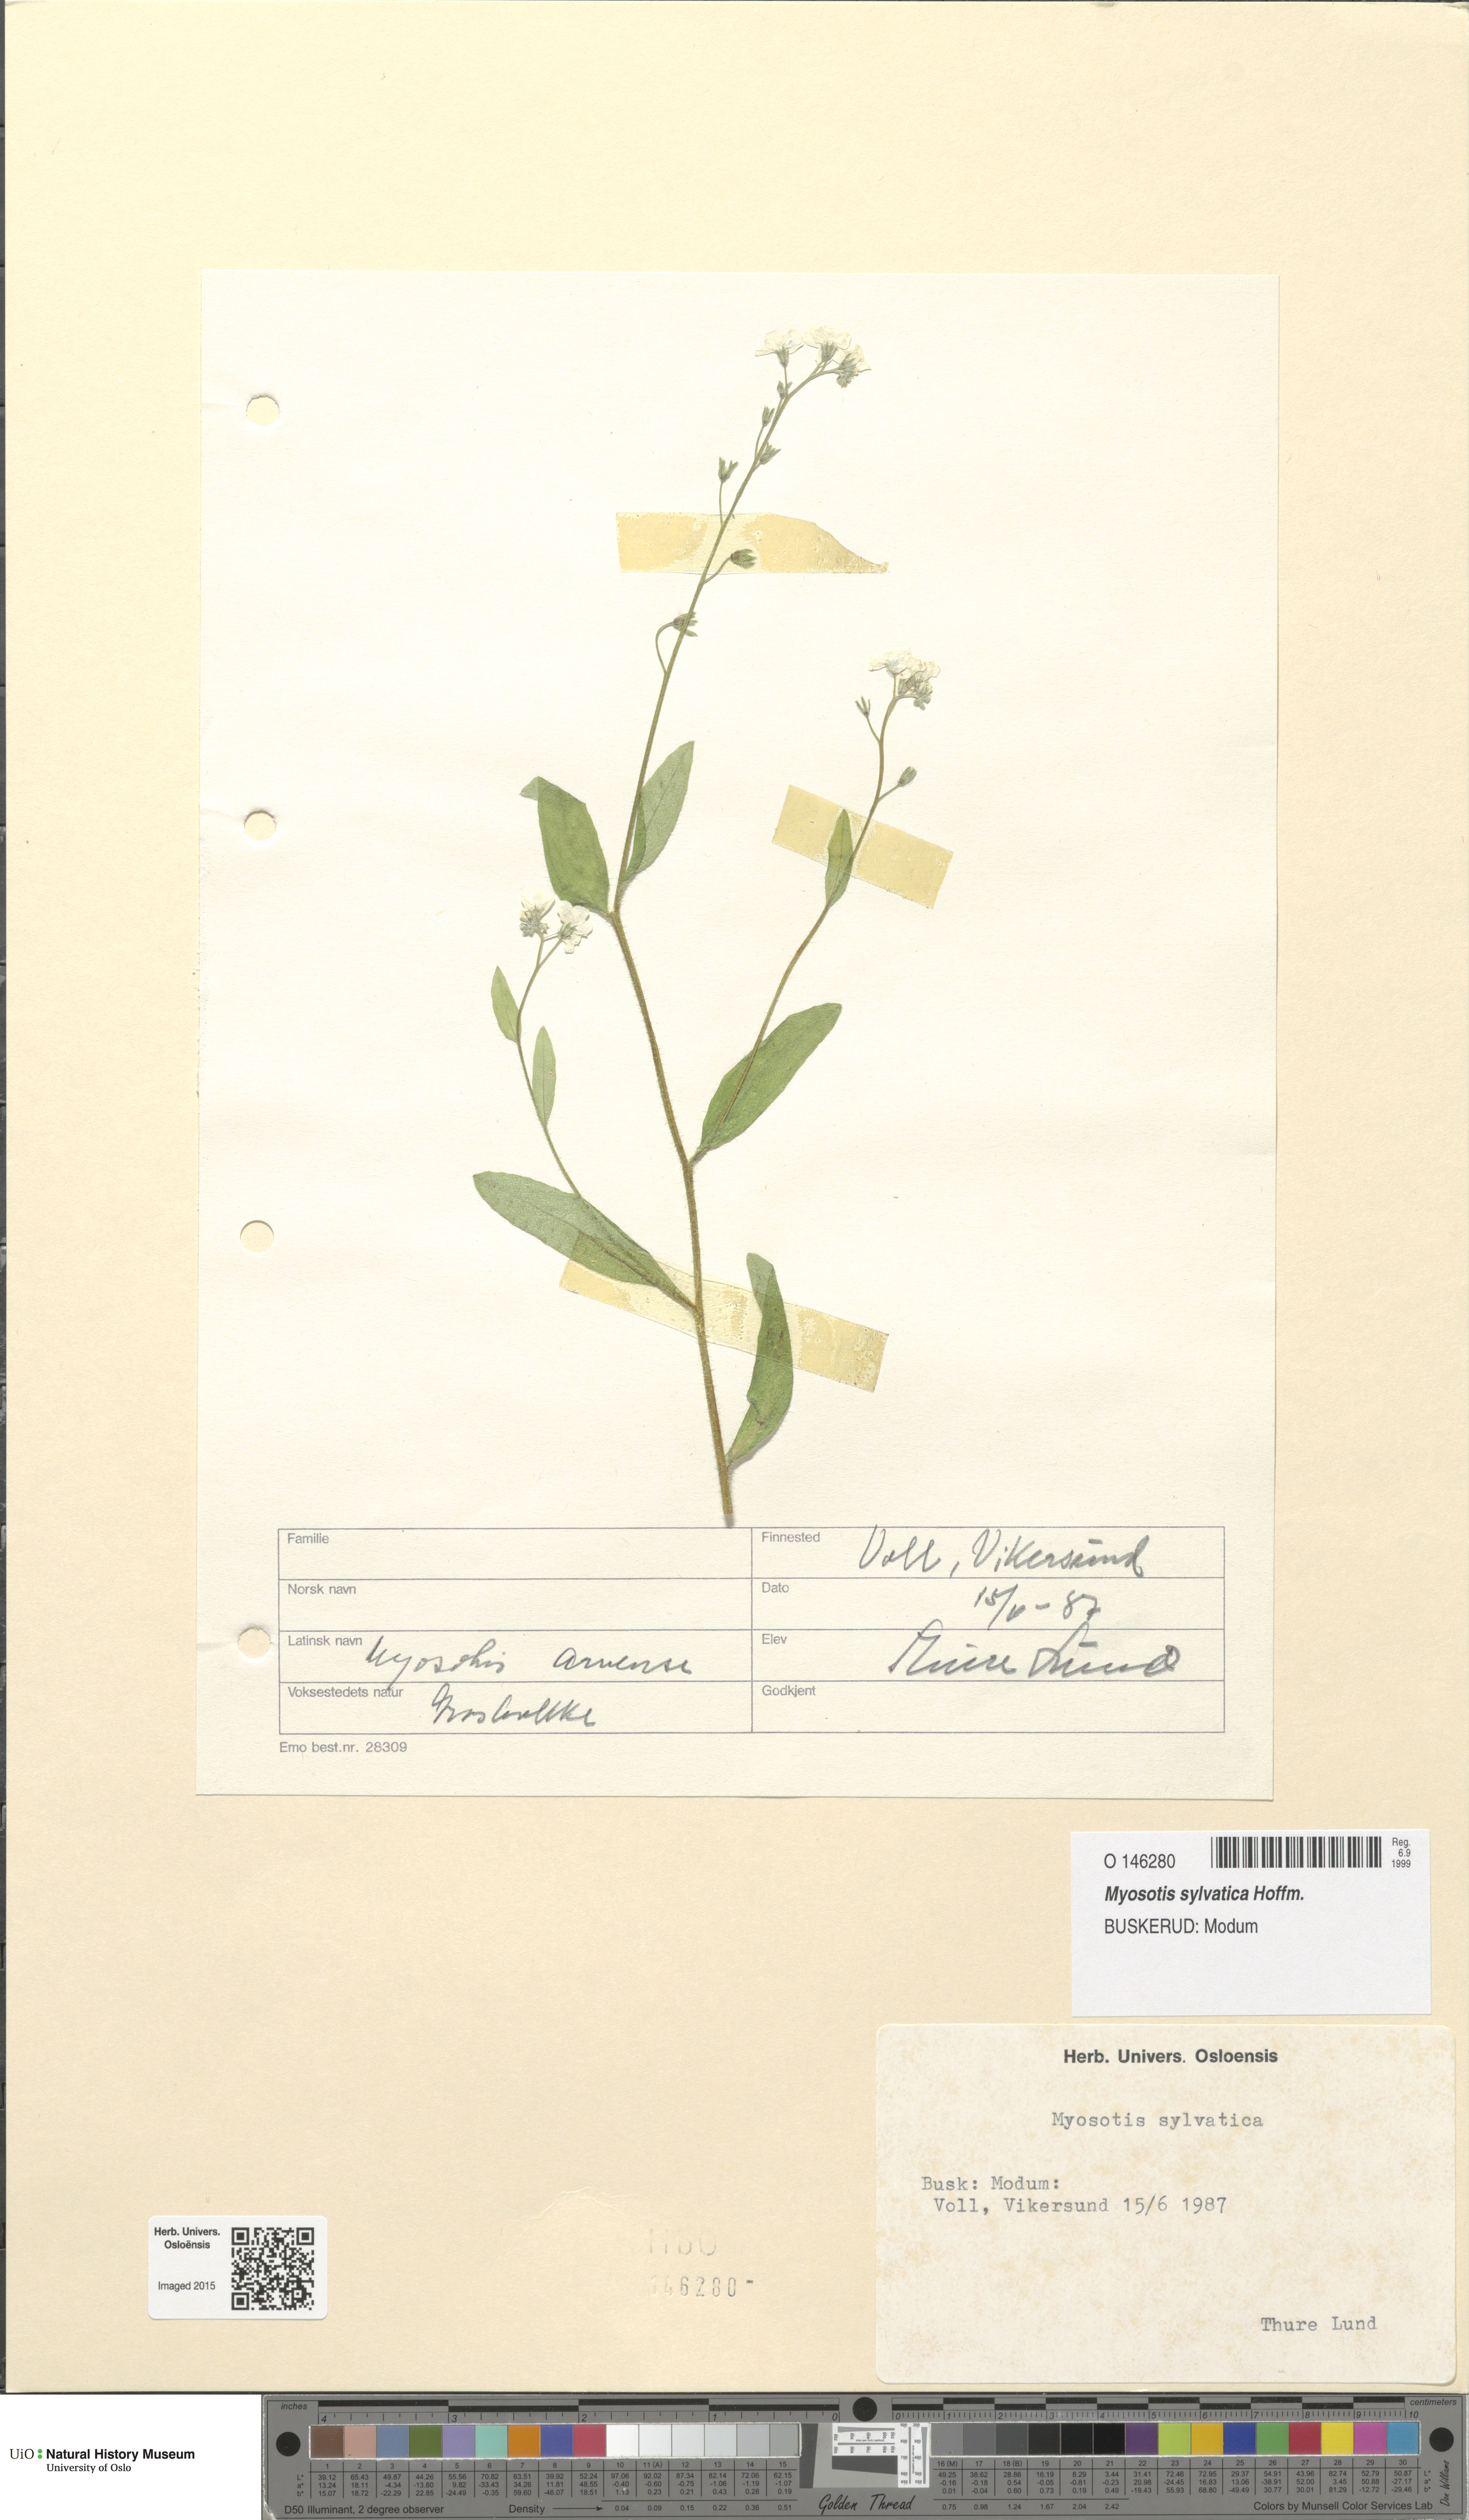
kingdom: Plantae
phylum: Tracheophyta
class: Magnoliopsida
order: Boraginales
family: Boraginaceae
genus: Myosotis
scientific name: Myosotis sylvatica
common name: Wood forget-me-not
